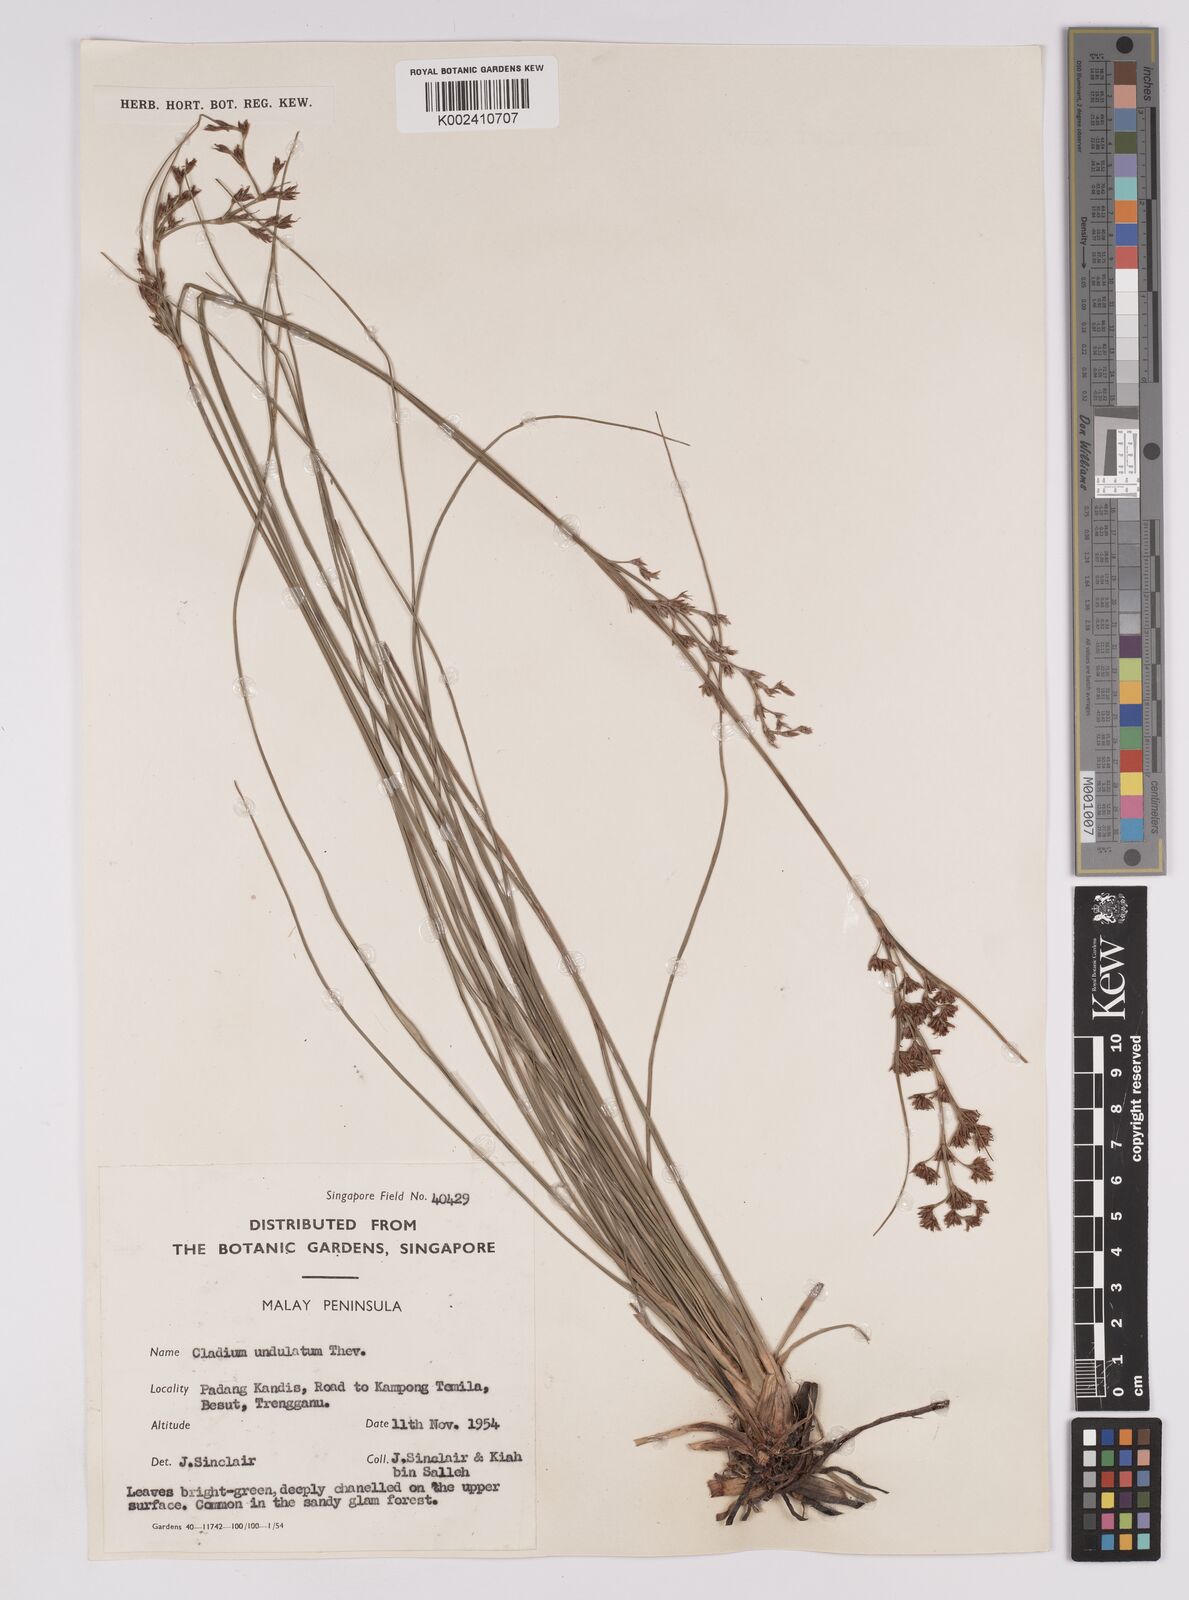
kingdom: Plantae
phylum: Tracheophyta
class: Liliopsida
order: Poales
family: Cyperaceae
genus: Anthelepis
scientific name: Anthelepis undulata
